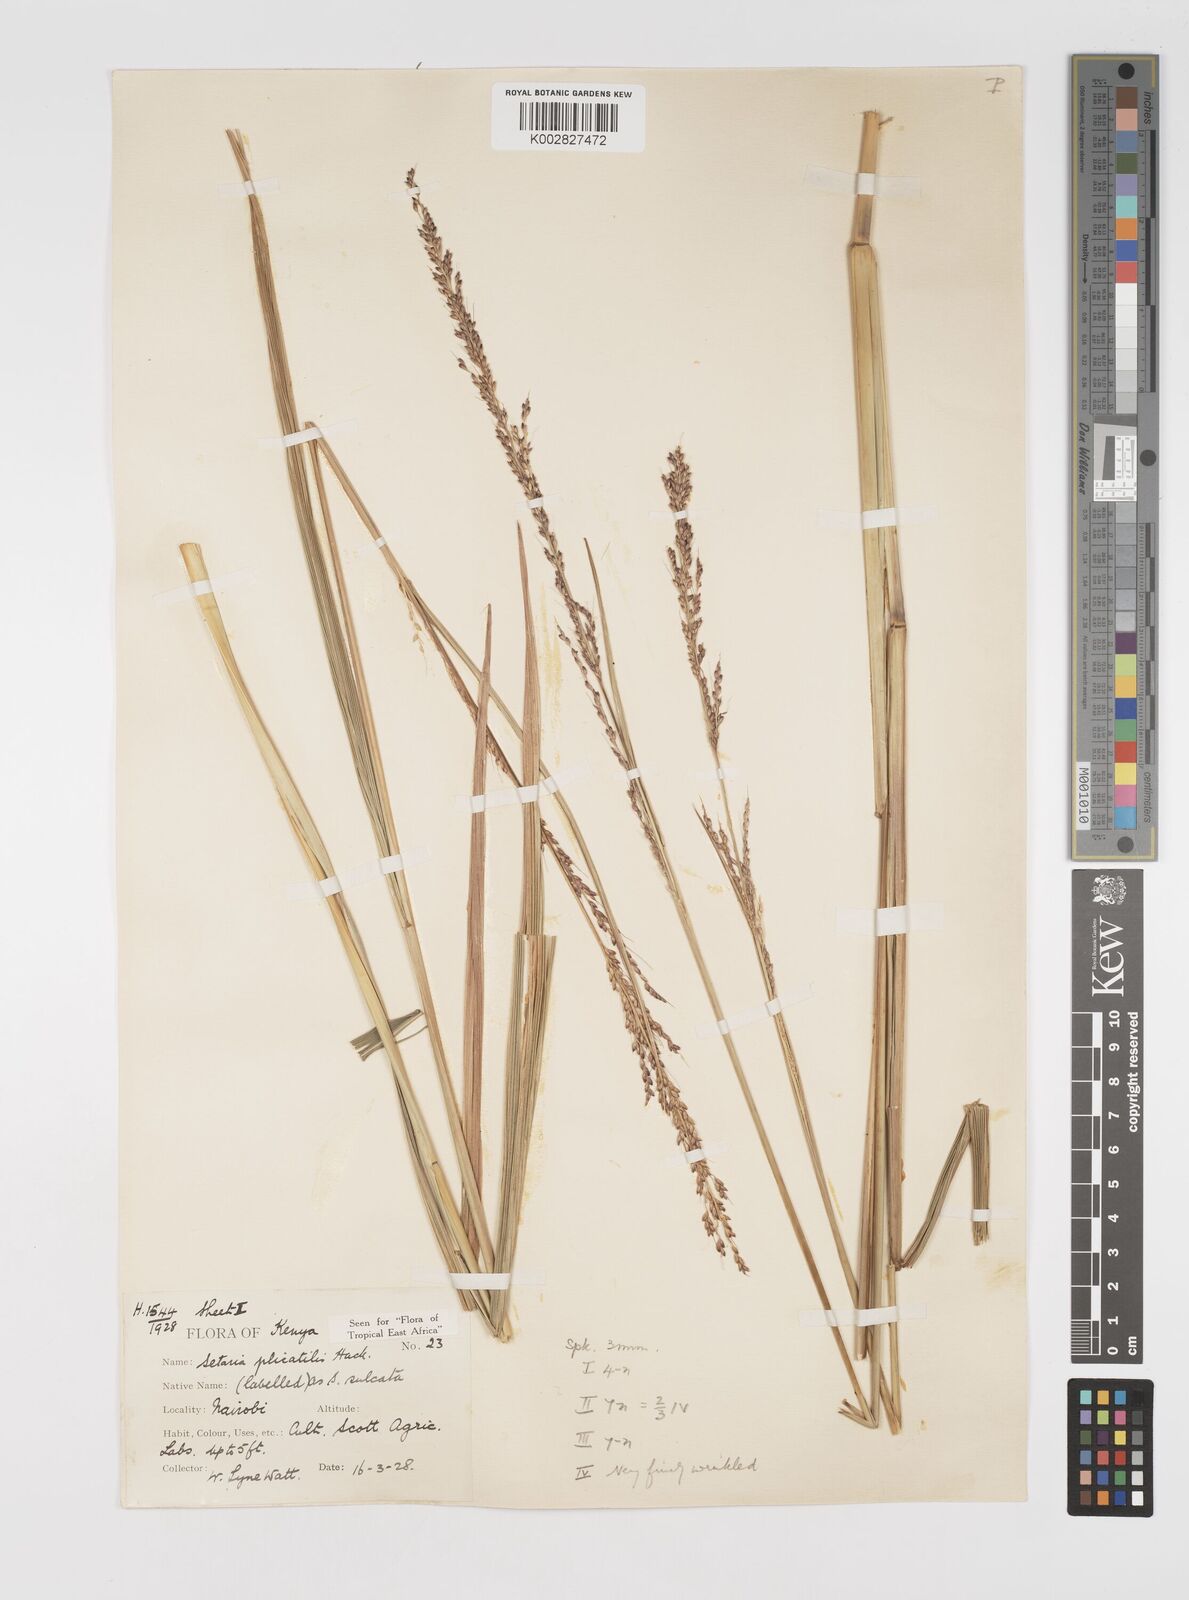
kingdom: Plantae
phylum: Tracheophyta
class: Liliopsida
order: Poales
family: Poaceae
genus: Setaria
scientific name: Setaria megaphylla
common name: Bigleaf bristlegrass
